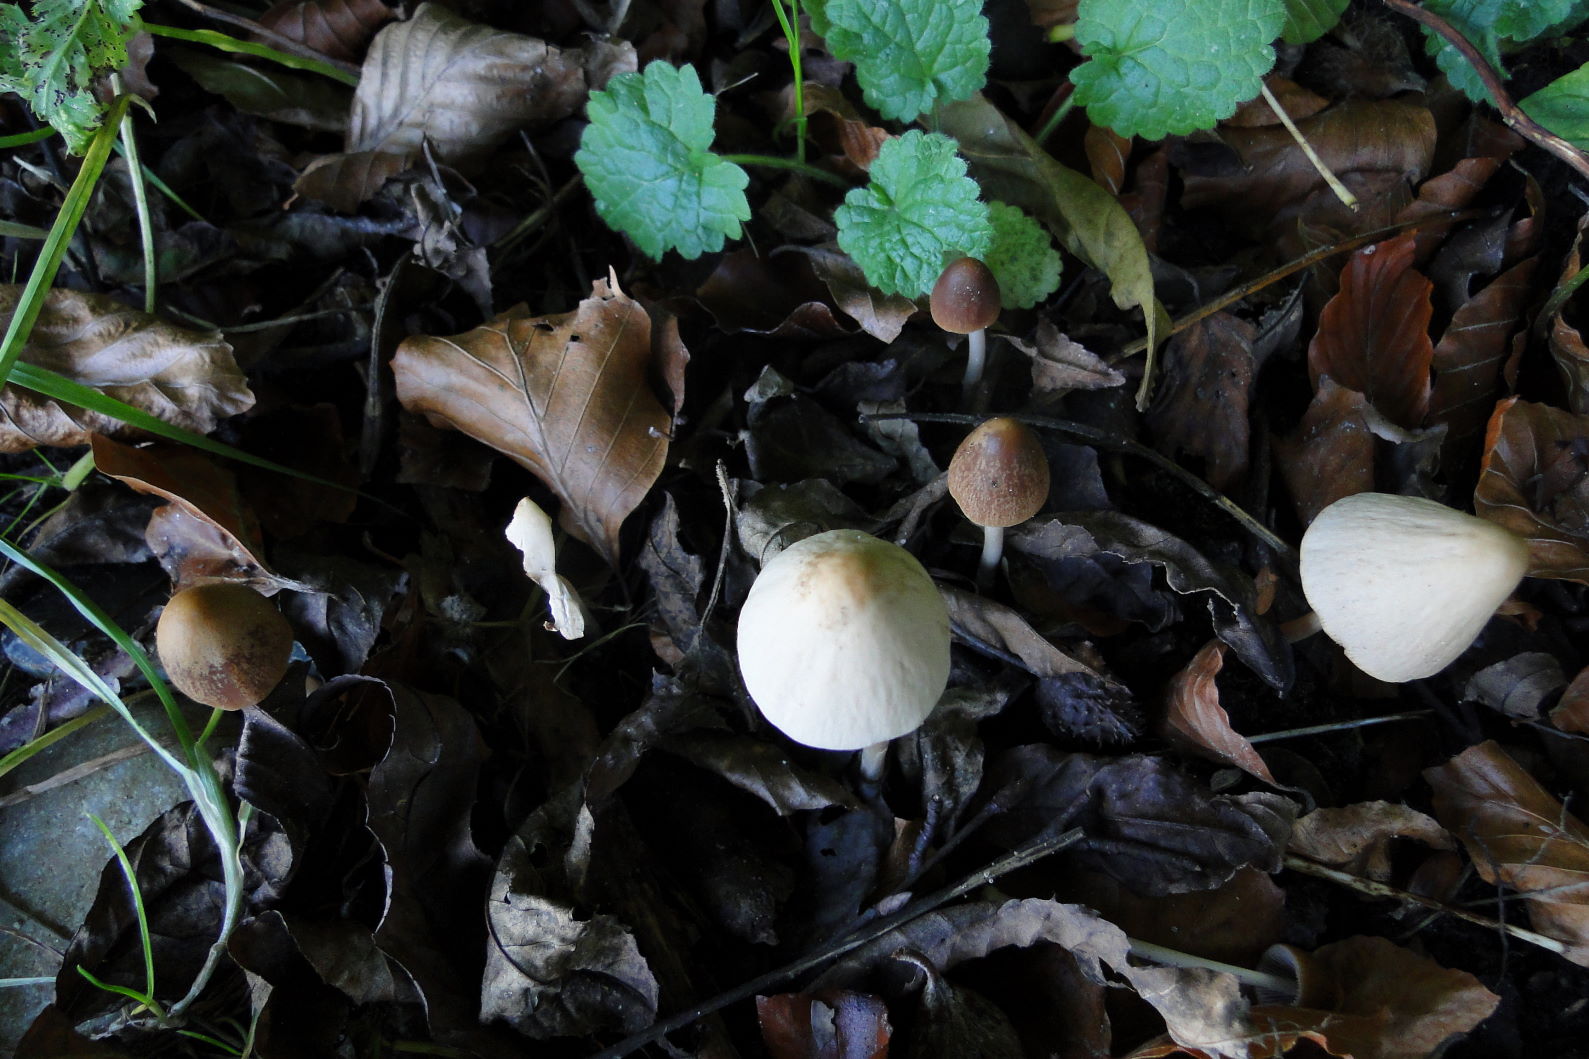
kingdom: Fungi
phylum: Basidiomycota
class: Agaricomycetes
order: Agaricales
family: Psathyrellaceae
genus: Parasola
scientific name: Parasola conopilea
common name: kegle-hjulhat
